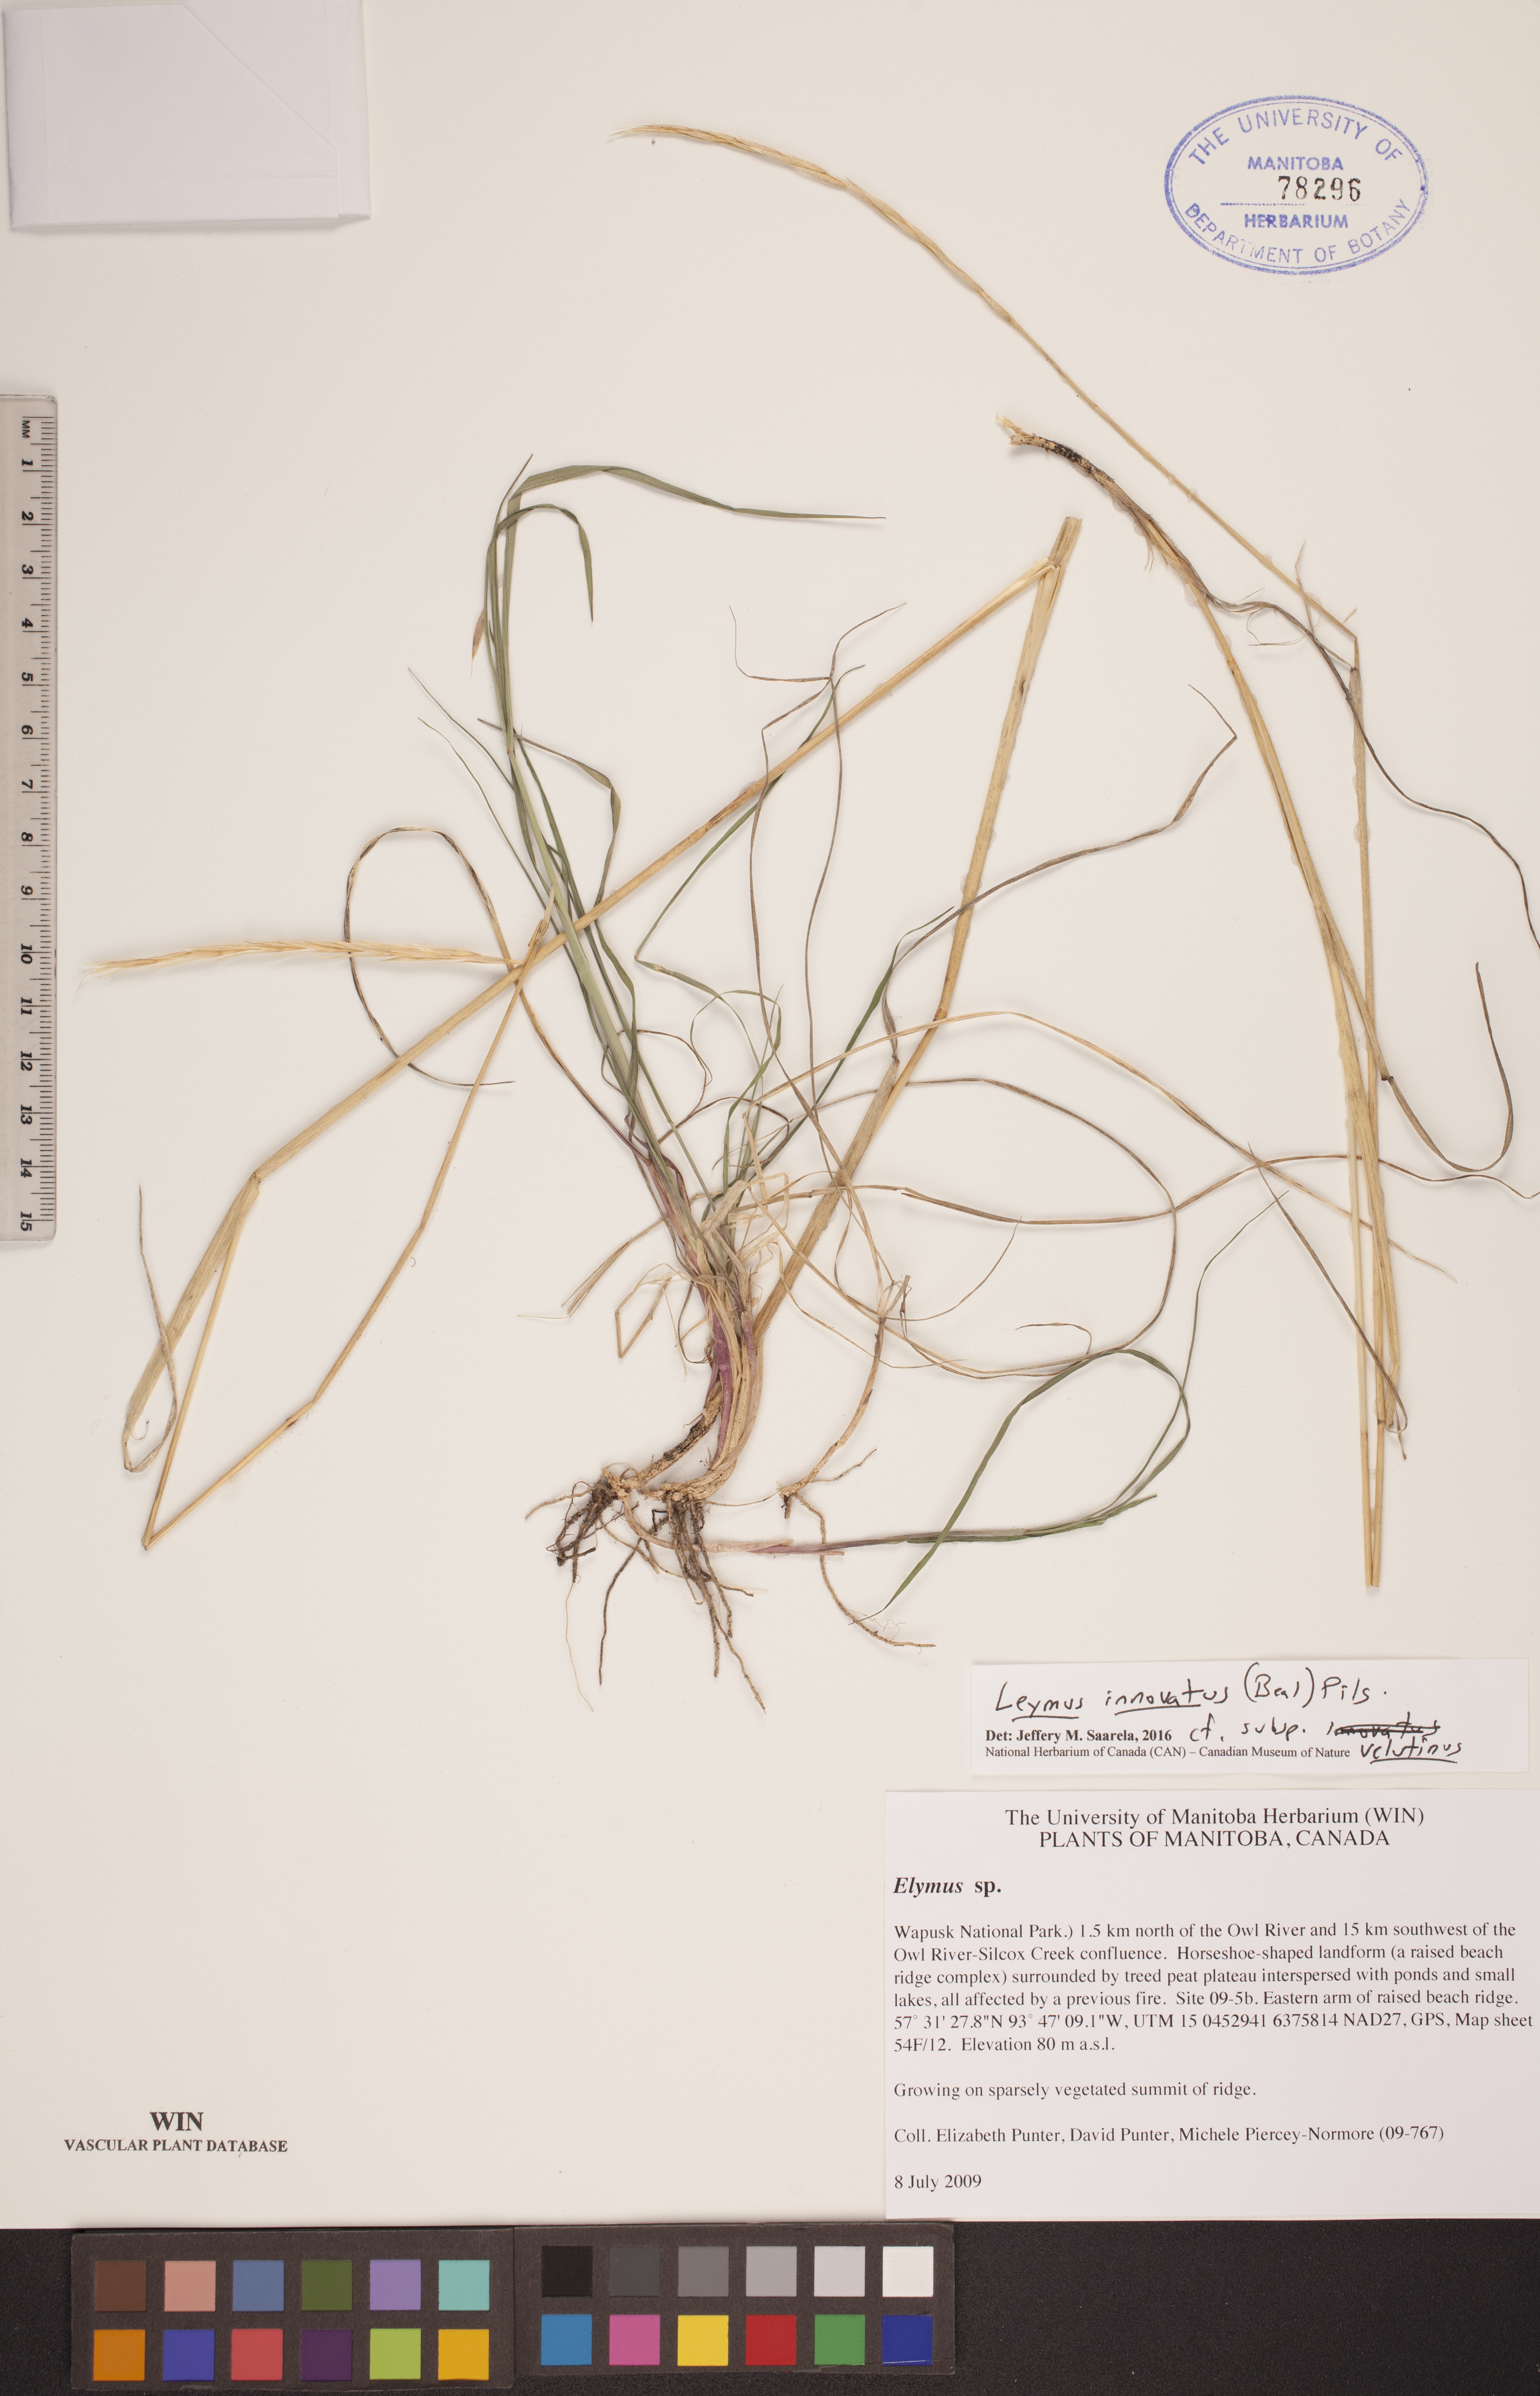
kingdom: Plantae
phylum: Tracheophyta
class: Liliopsida
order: Poales
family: Poaceae
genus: Leymus
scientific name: Leymus innovatus
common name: Boreal wild rye
